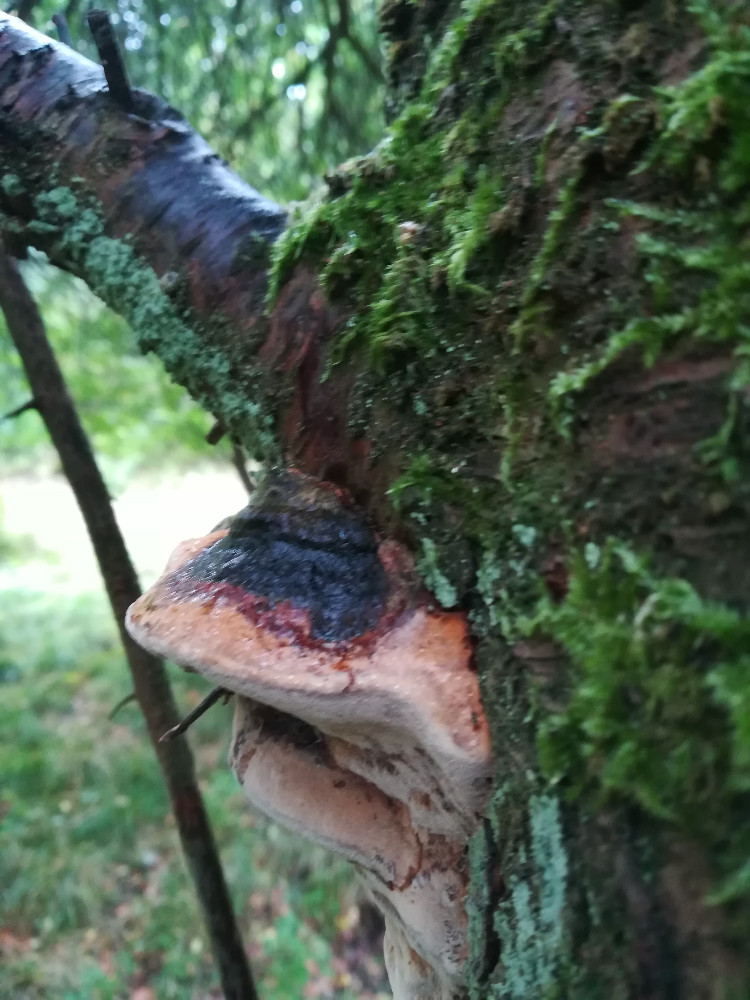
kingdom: Fungi
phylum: Basidiomycota
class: Agaricomycetes
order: Hymenochaetales
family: Hymenochaetaceae
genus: Phellinus
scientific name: Phellinus pomaceus
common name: blomme-ildporesvamp
